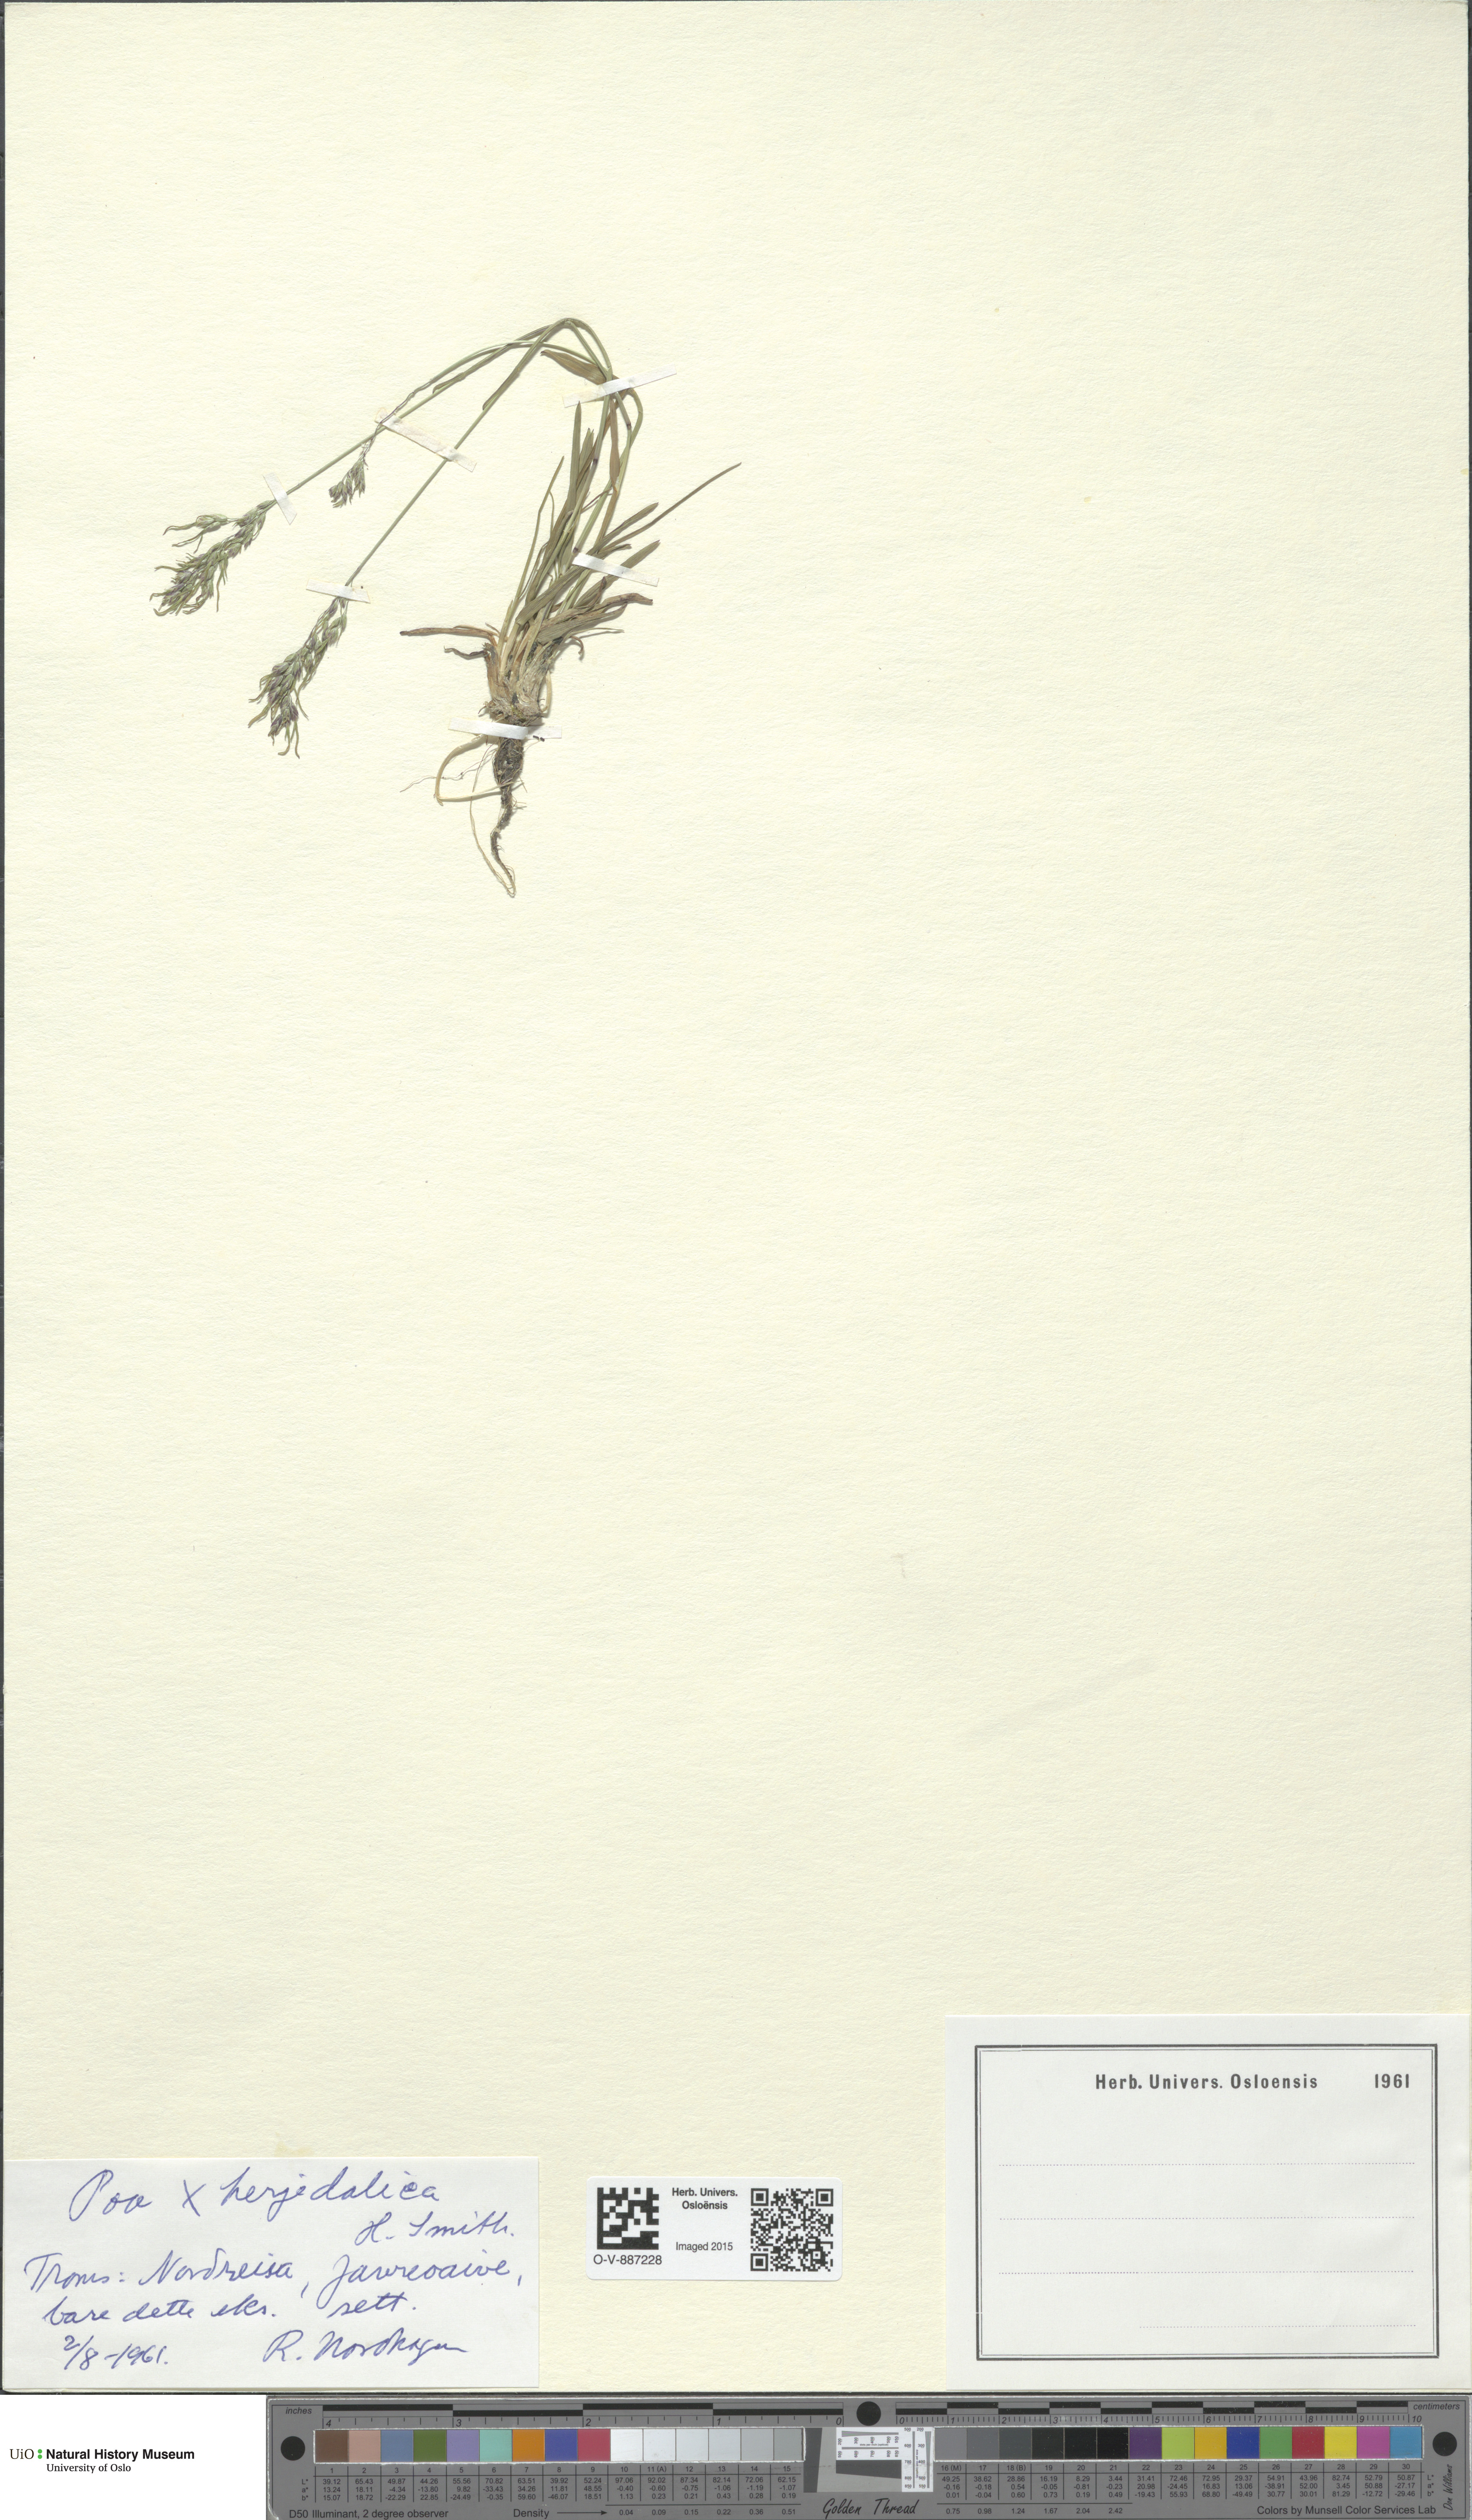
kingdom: Plantae
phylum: Tracheophyta
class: Liliopsida
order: Poales
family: Poaceae
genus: Poa
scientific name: Poa herjedalica
